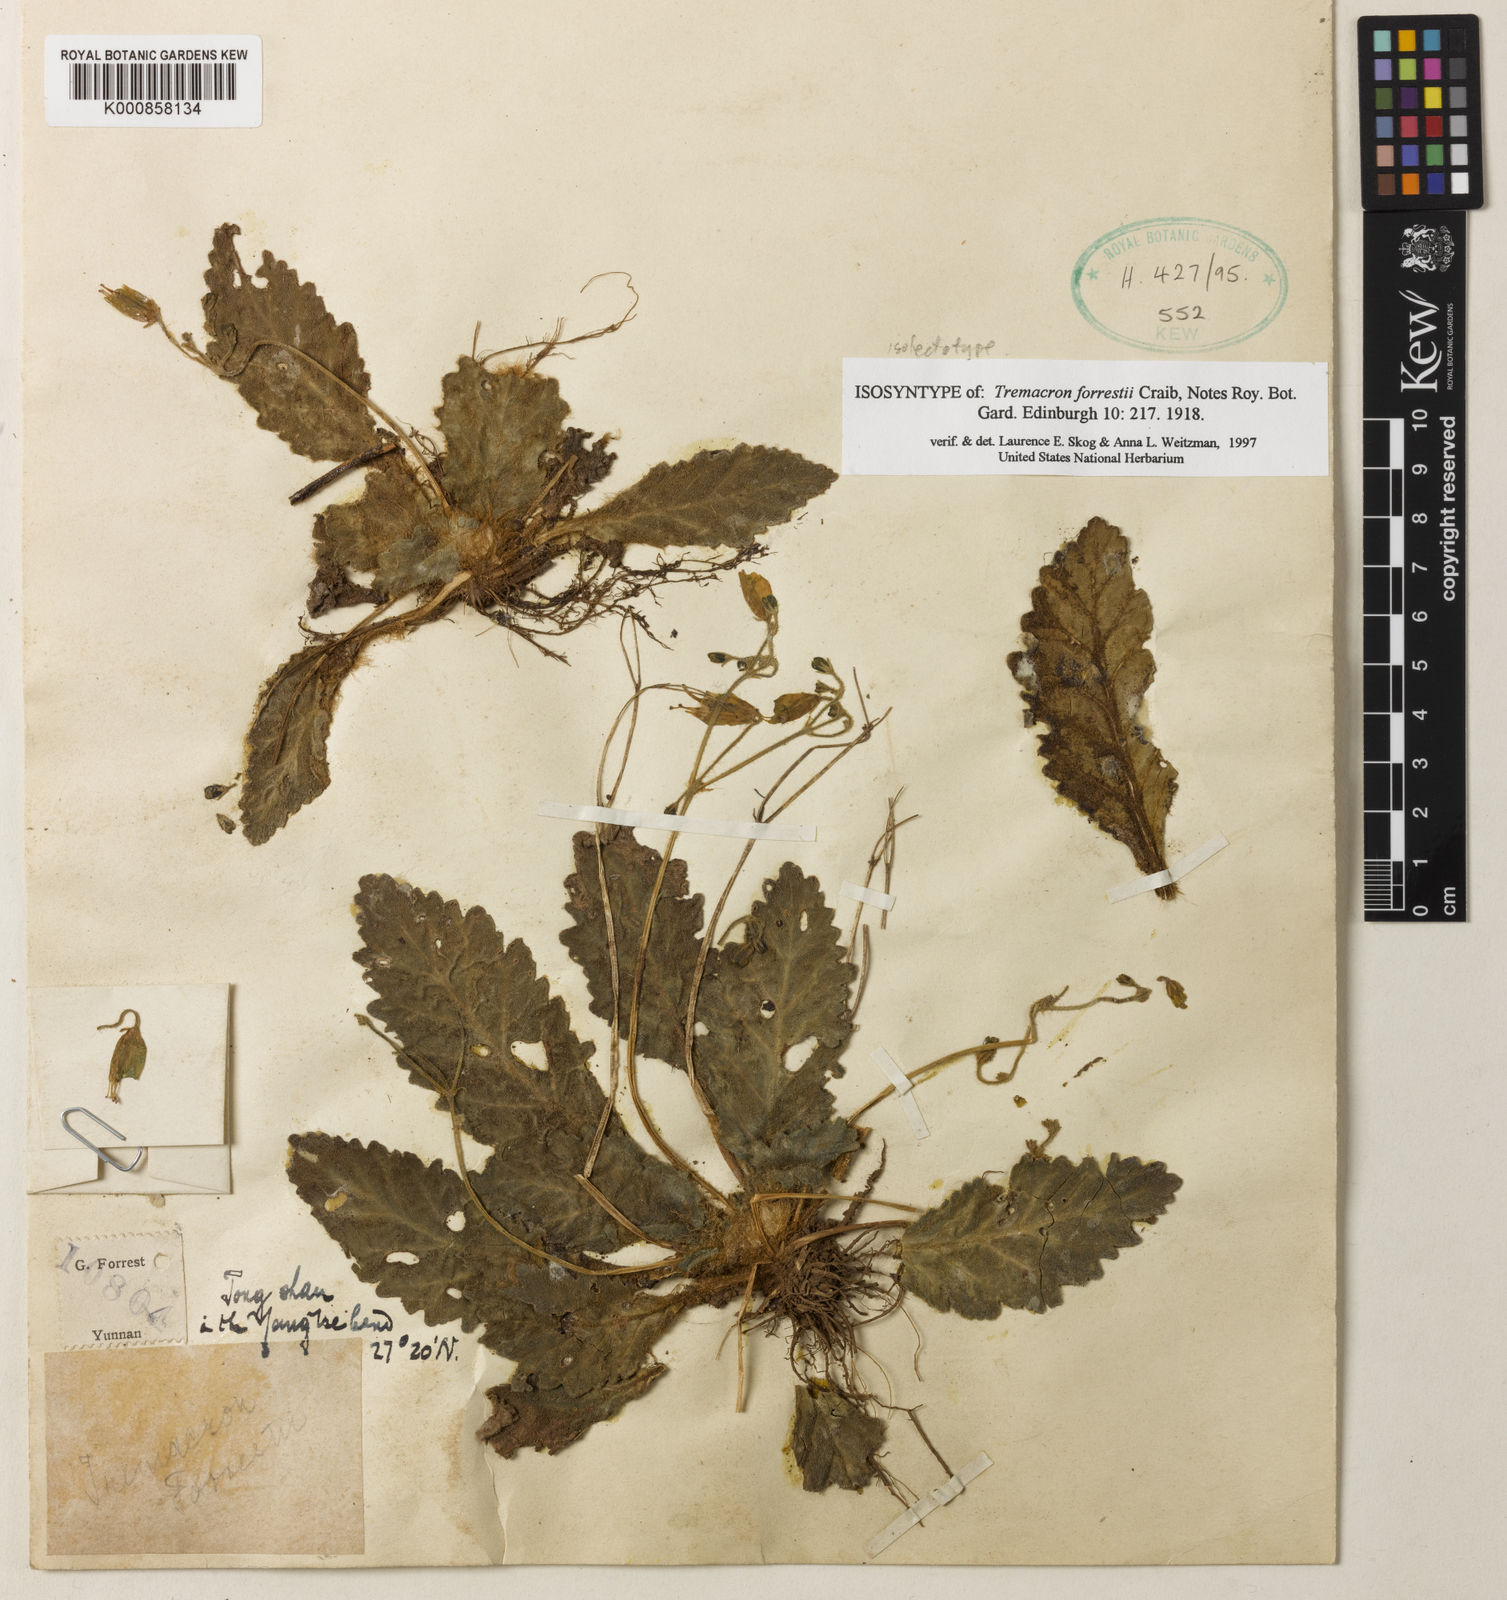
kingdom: Plantae
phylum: Tracheophyta
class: Magnoliopsida
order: Lamiales
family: Gesneriaceae
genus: Oreocharis
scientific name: Oreocharis
